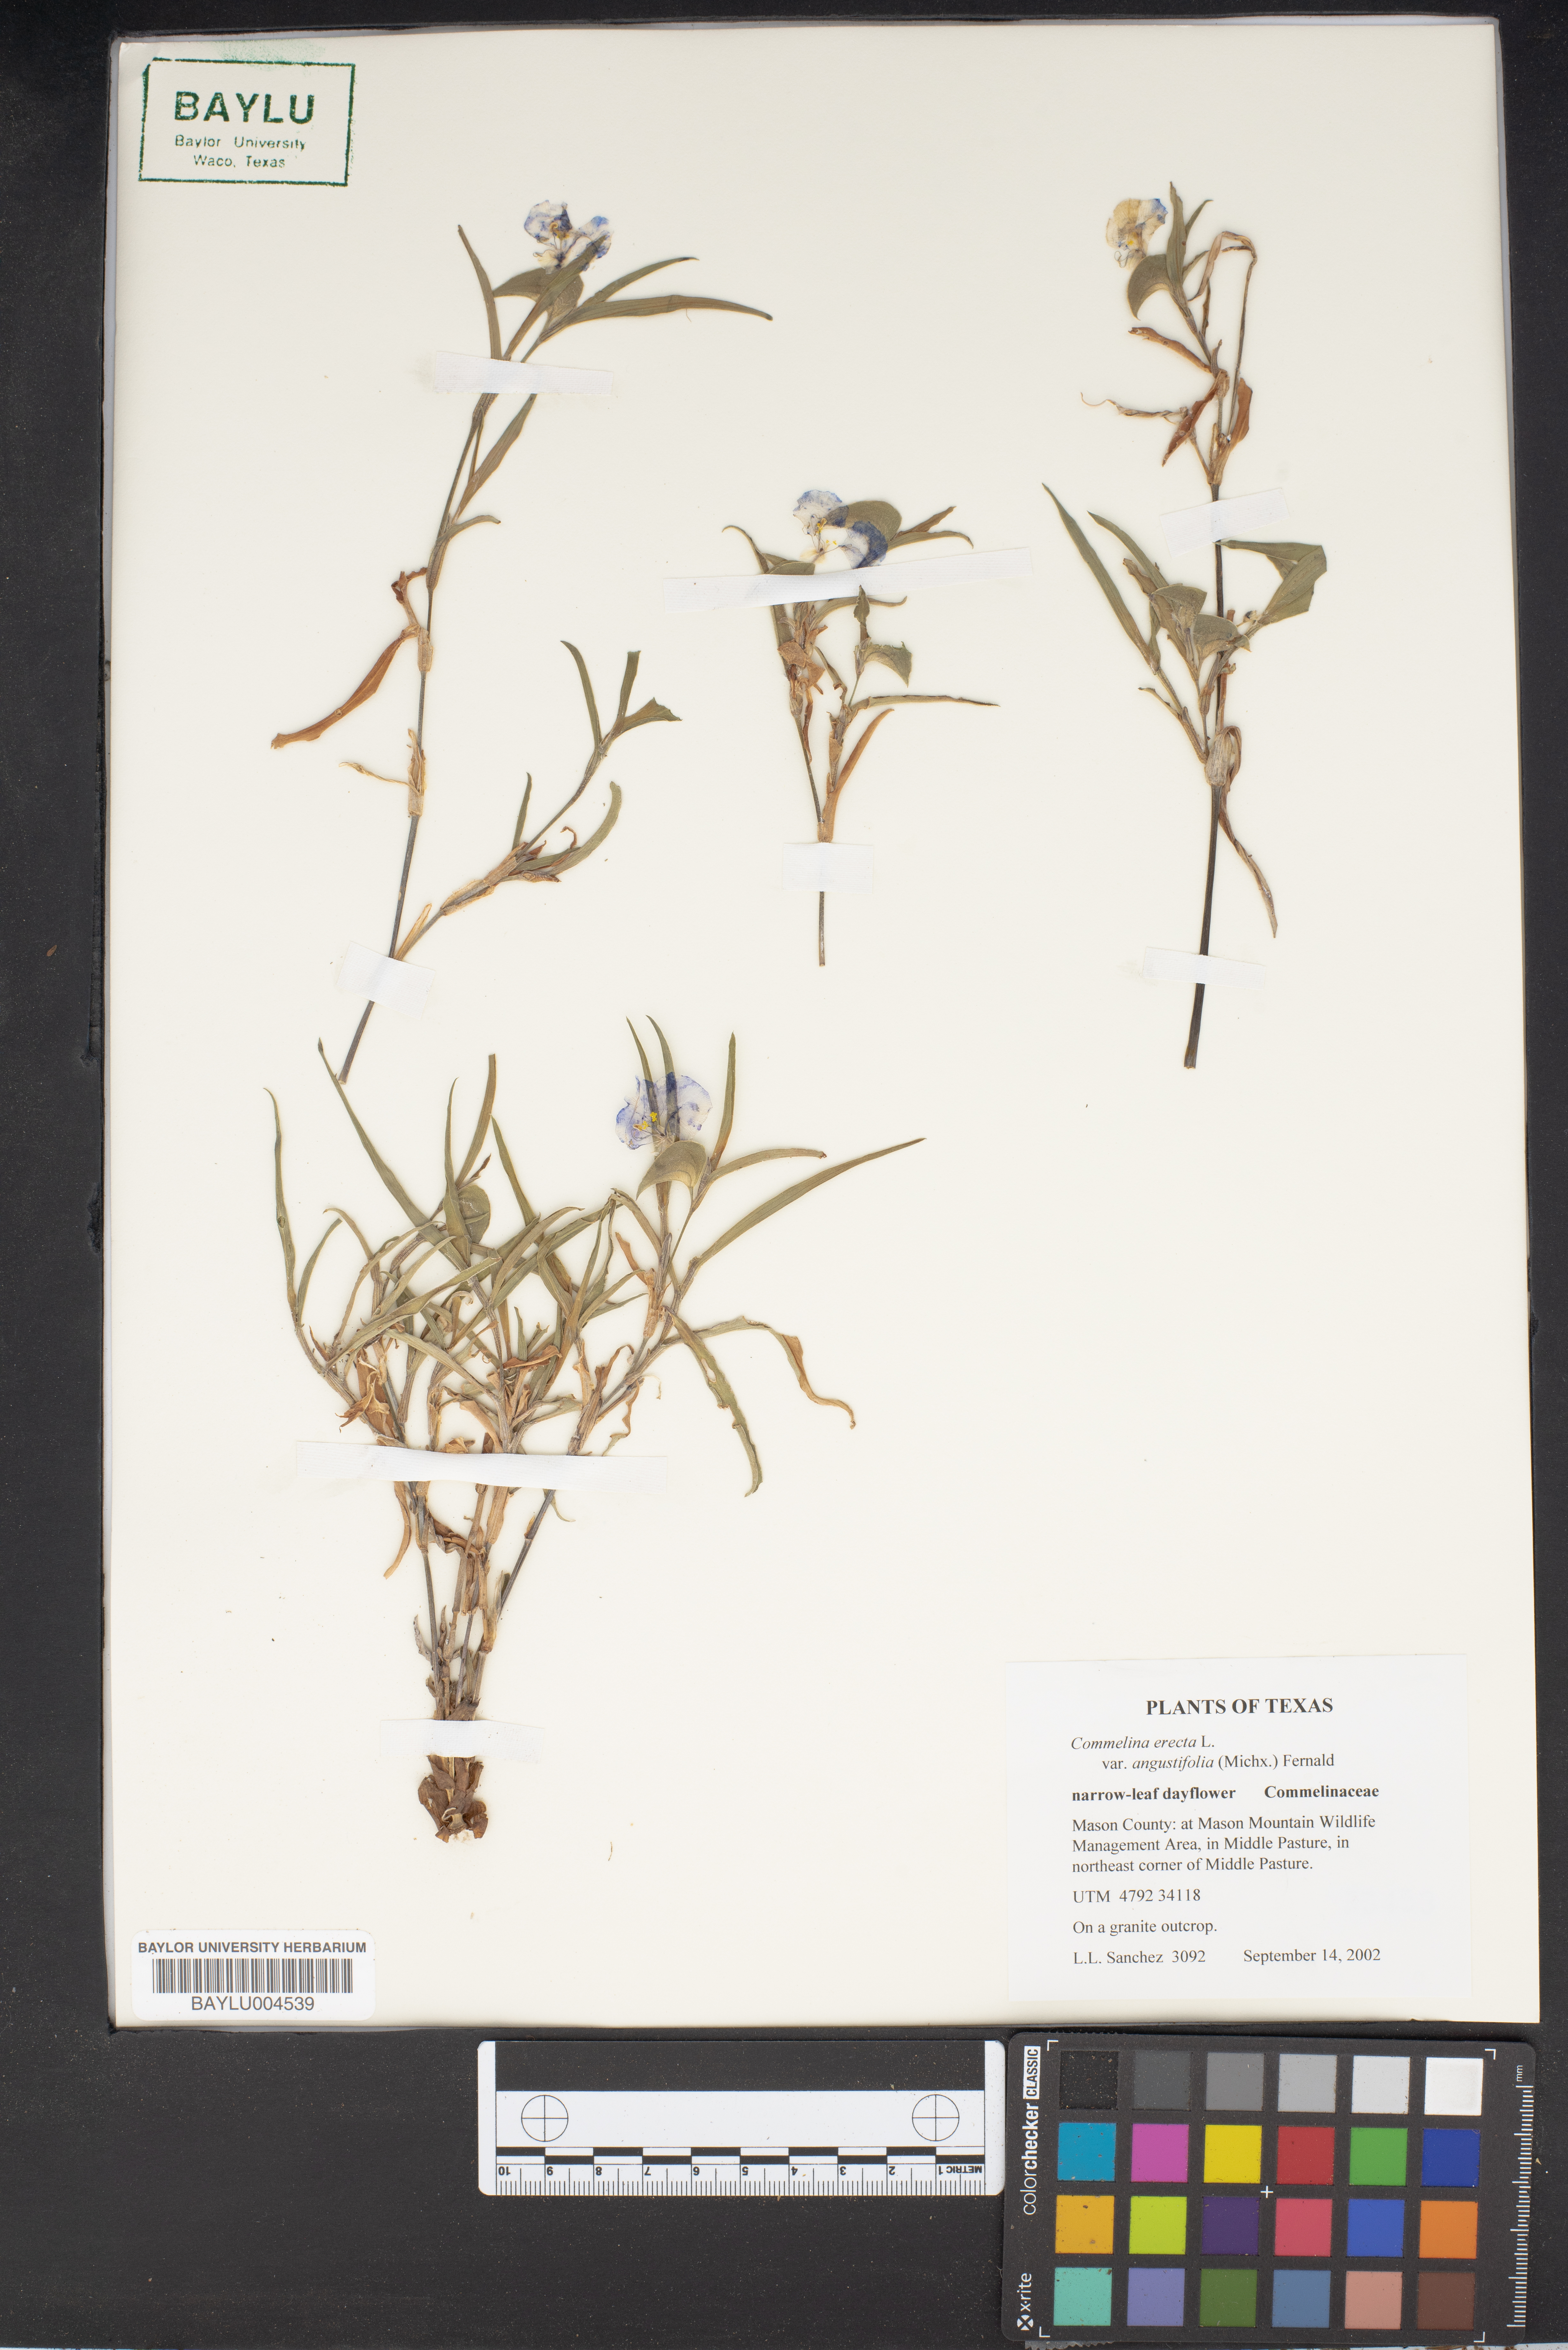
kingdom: Plantae
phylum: Tracheophyta
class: Liliopsida
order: Commelinales
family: Commelinaceae
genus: Commelina
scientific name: Commelina erecta
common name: Blousel blommetjie
